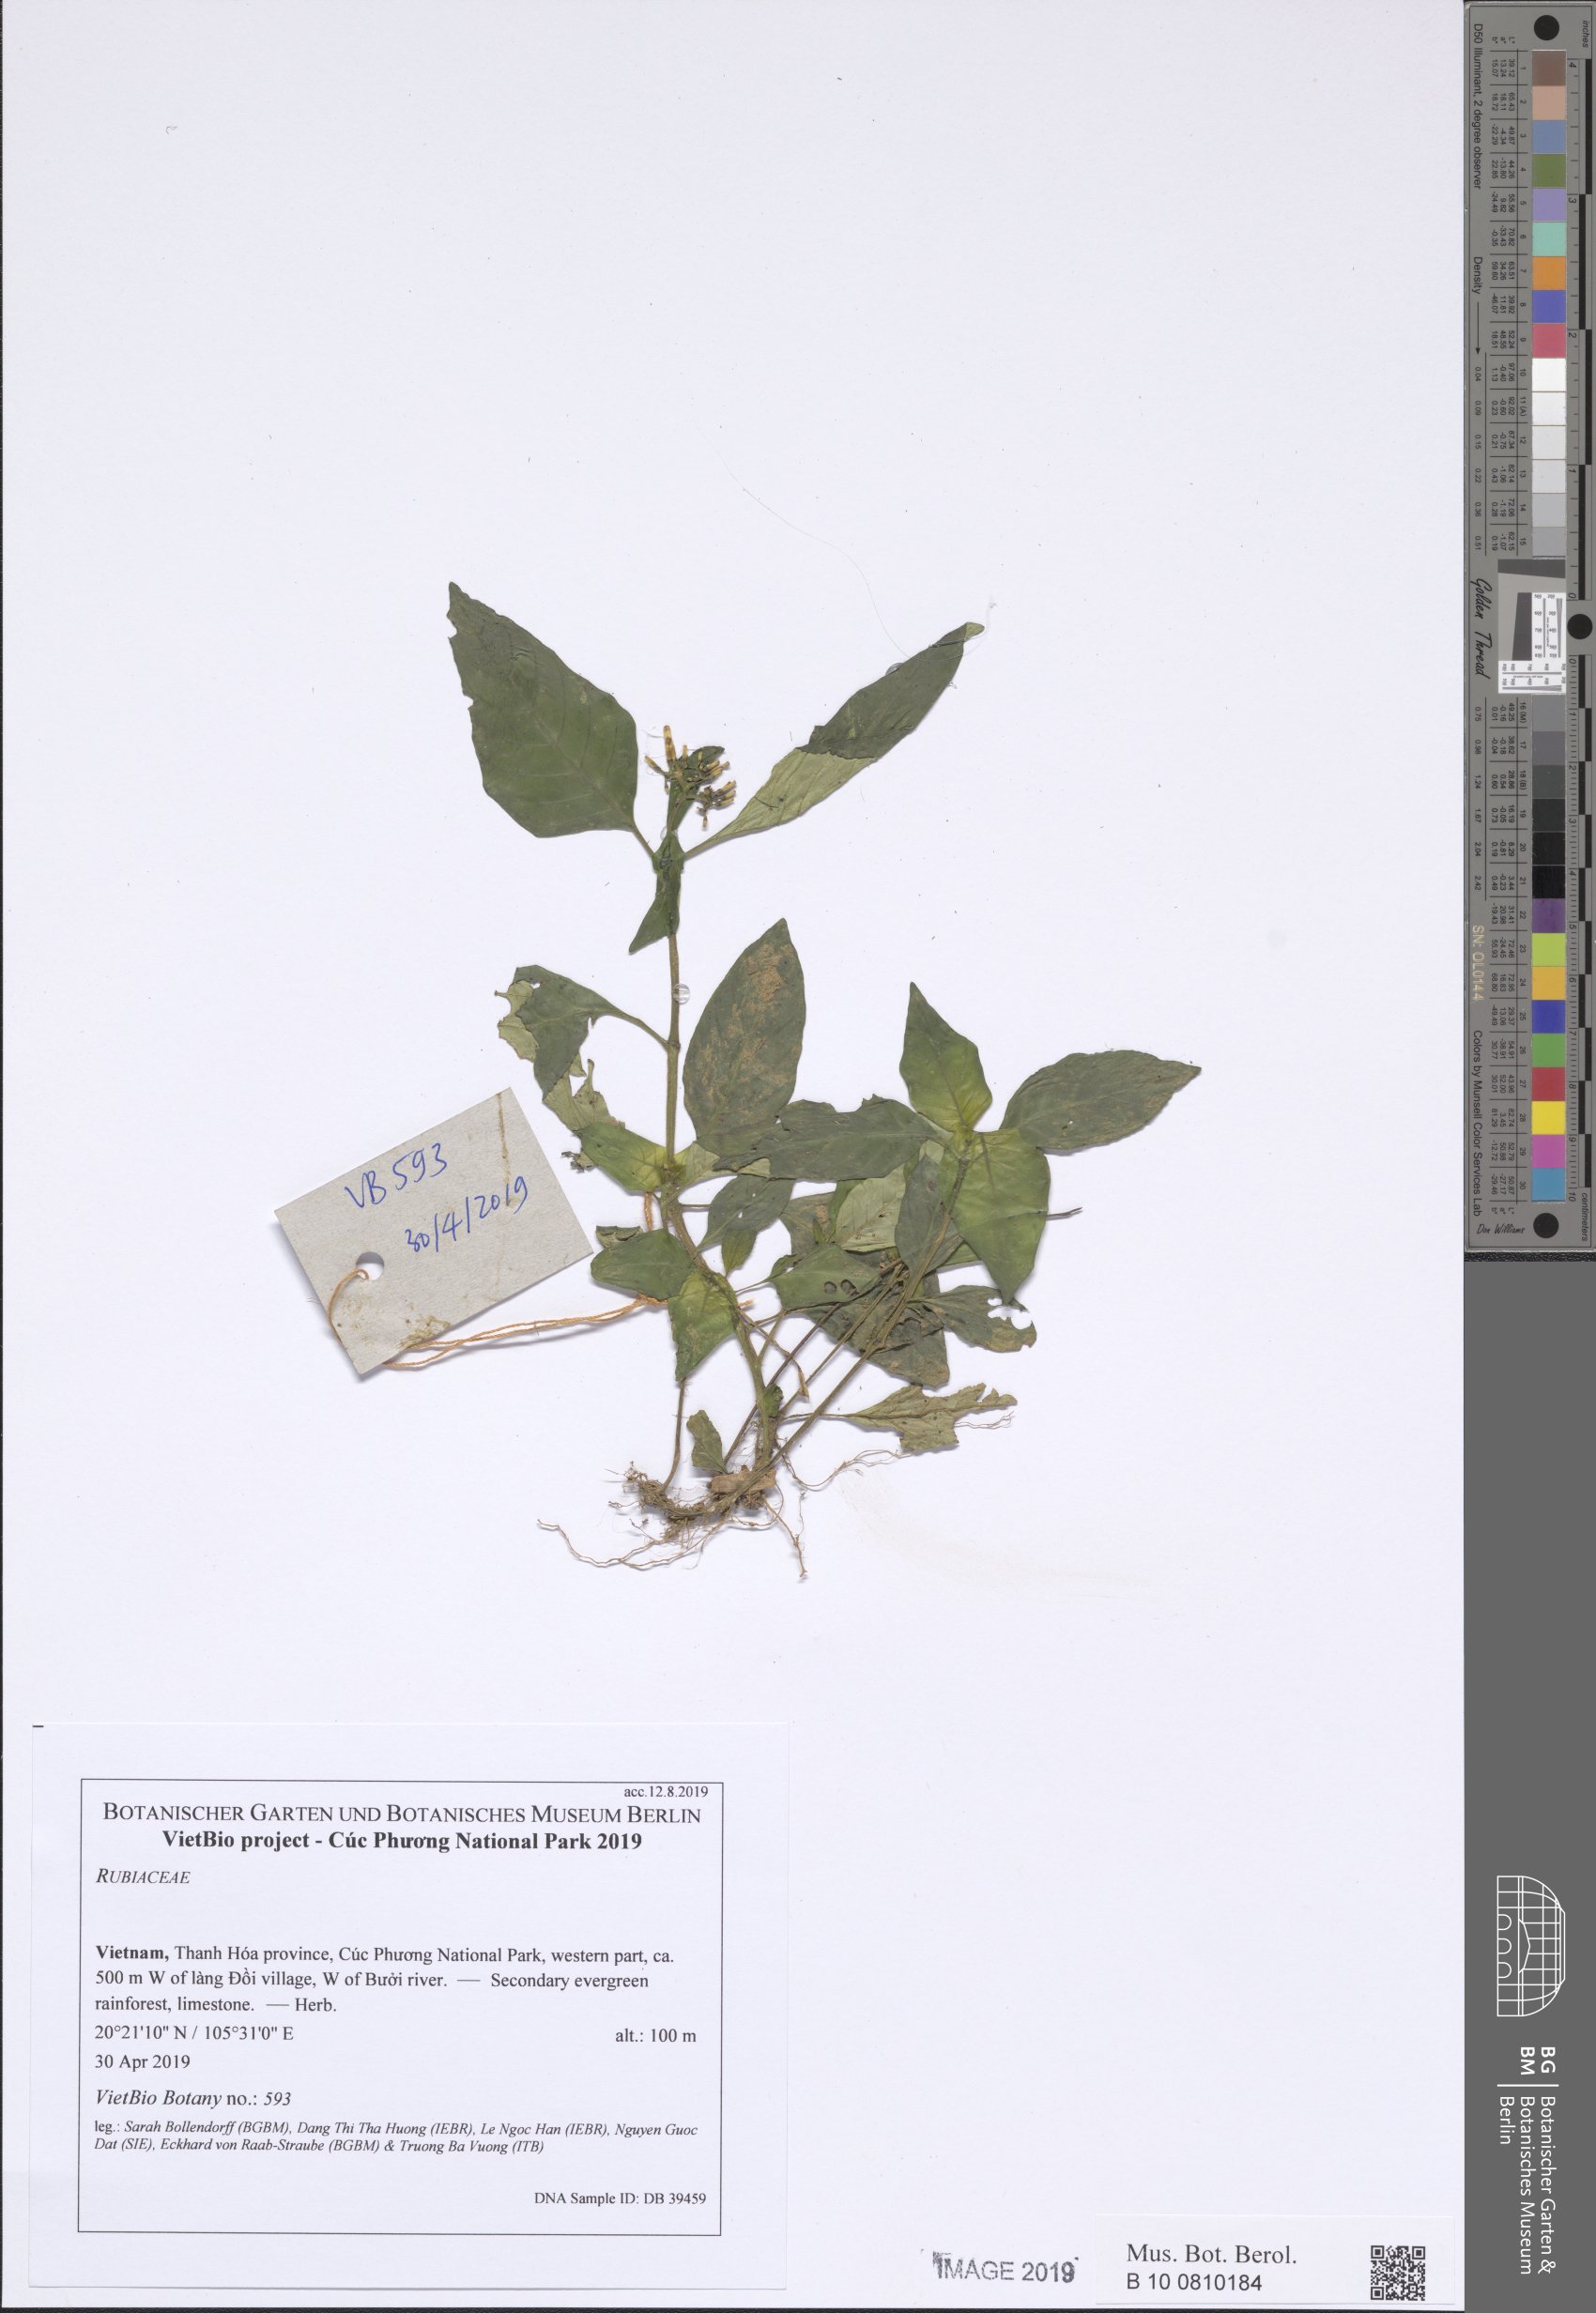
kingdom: Plantae
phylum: Tracheophyta
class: Magnoliopsida
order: Gentianales
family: Rubiaceae
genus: Ophiorrhiza
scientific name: Ophiorrhiza
